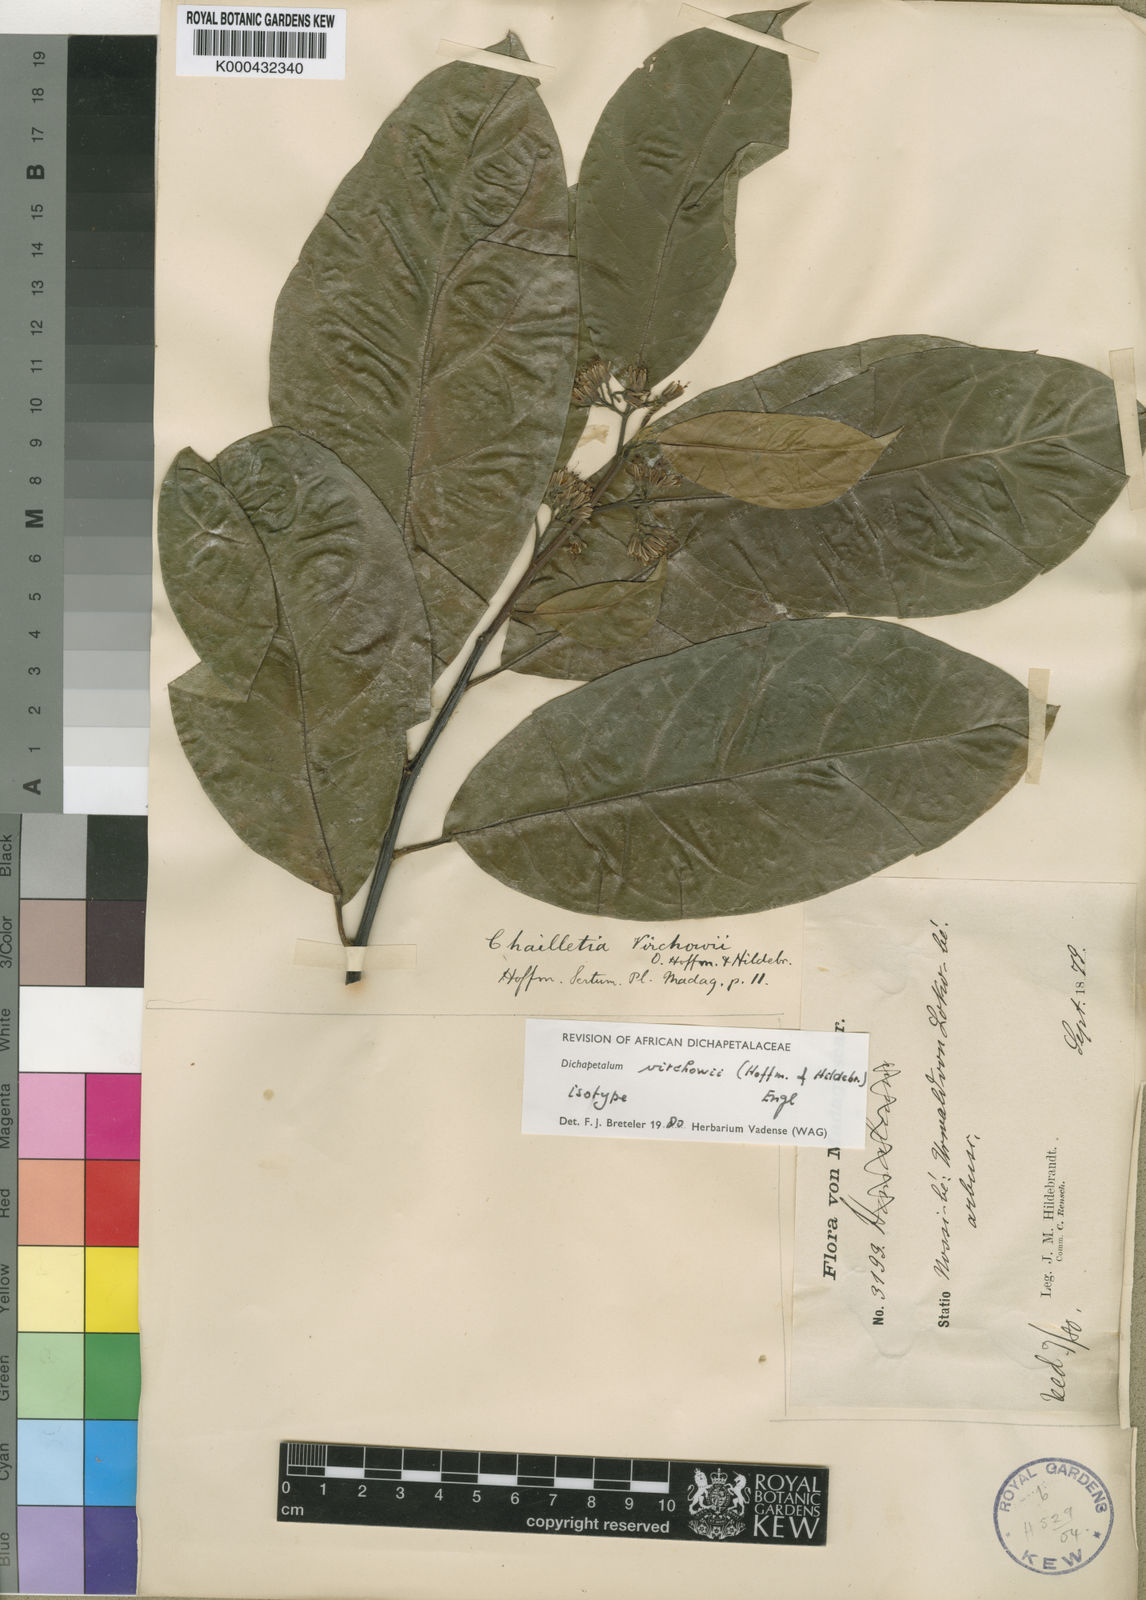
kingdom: Plantae
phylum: Tracheophyta
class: Magnoliopsida
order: Malpighiales
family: Dichapetalaceae
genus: Dichapetalum
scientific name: Dichapetalum virchowii
